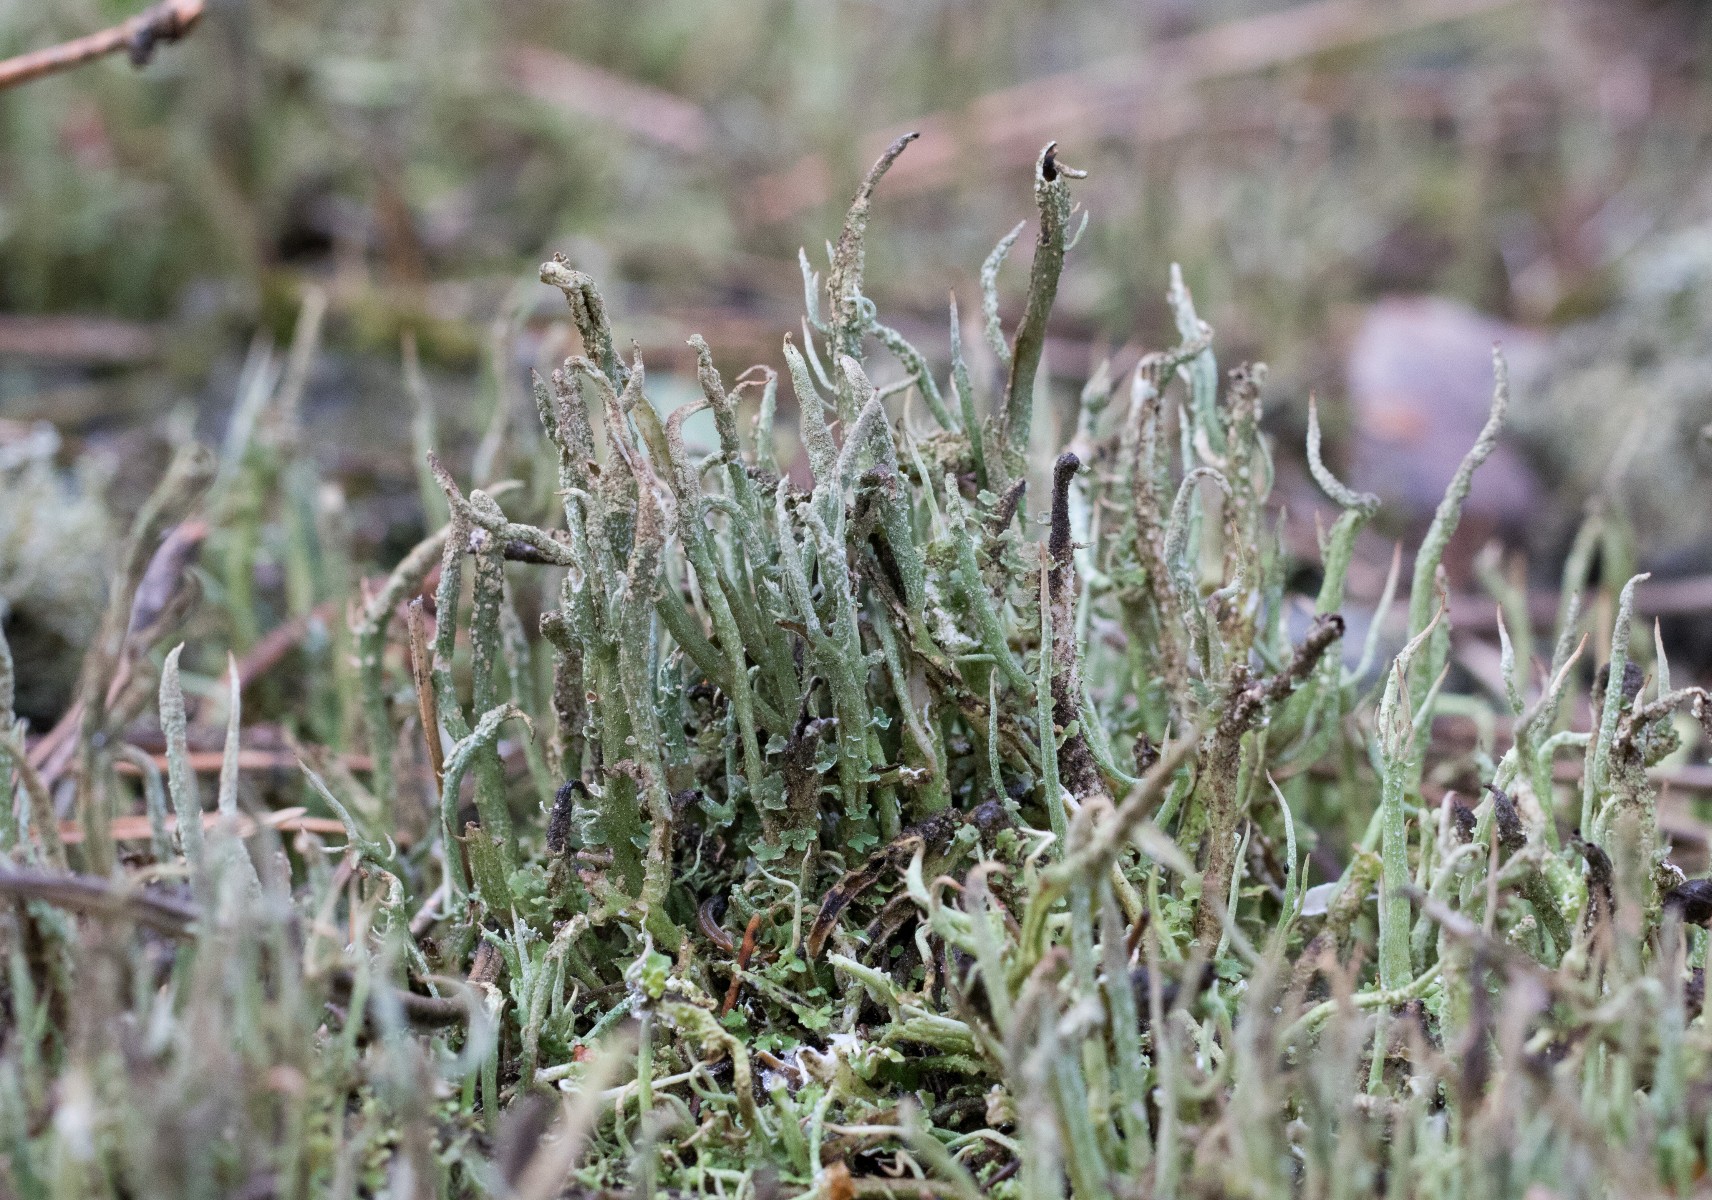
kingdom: Fungi
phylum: Ascomycota
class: Lecanoromycetes
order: Lecanorales
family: Cladoniaceae
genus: Cladonia
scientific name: Cladonia glauca
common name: grågrøn bægerlav
